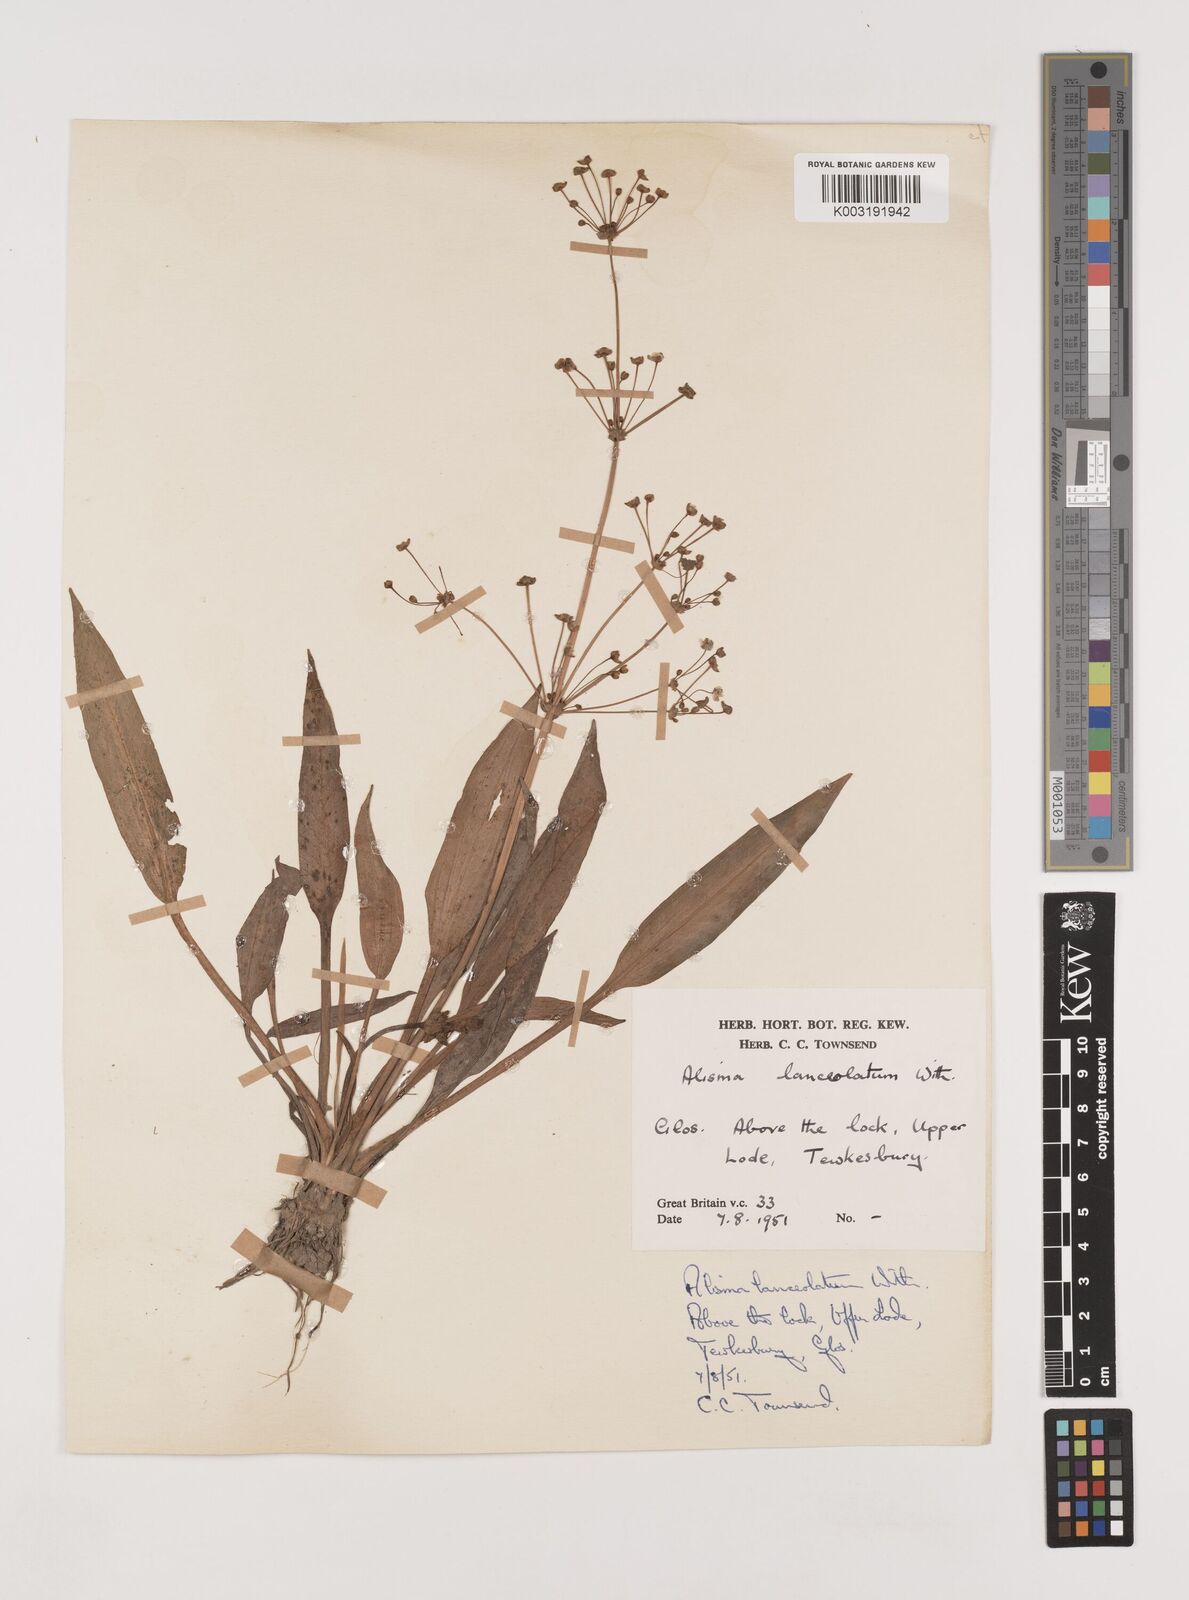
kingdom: Plantae
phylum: Tracheophyta
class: Liliopsida
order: Alismatales
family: Alismataceae
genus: Alisma
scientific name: Alisma lanceolatum
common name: Narrow-leaved water-plantain
